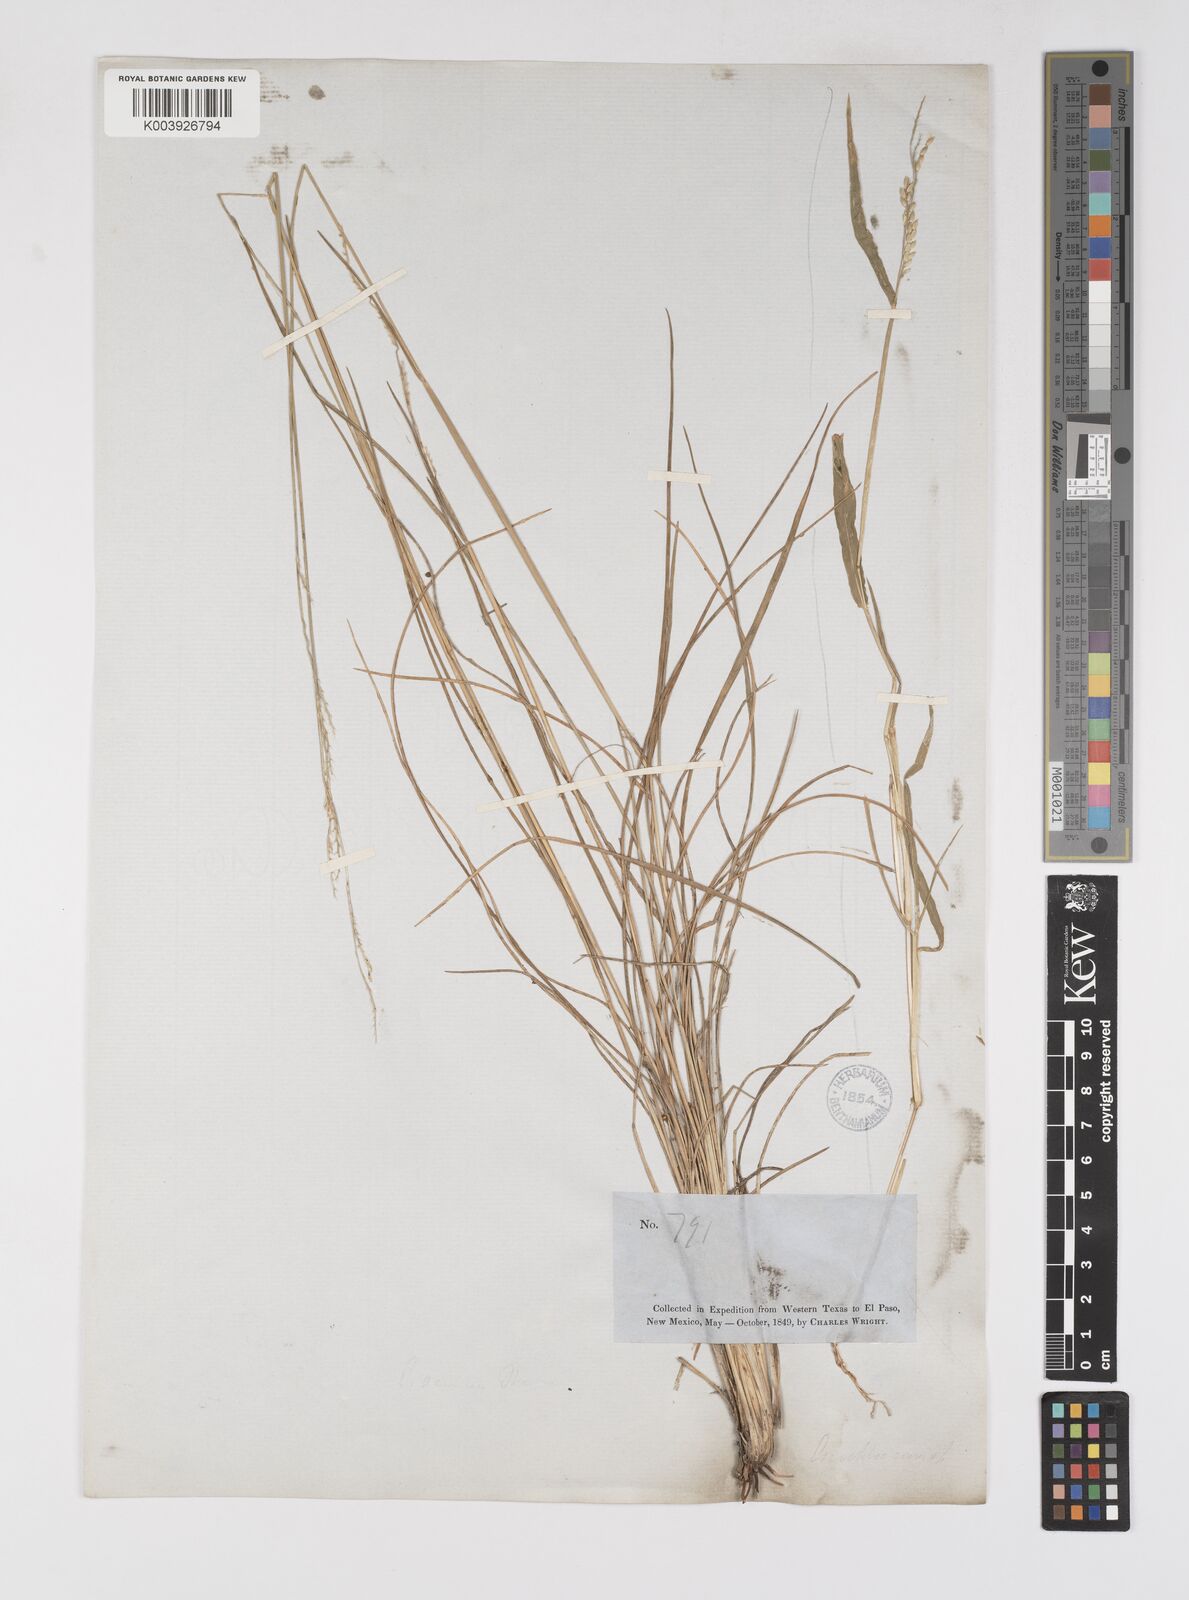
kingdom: Plantae
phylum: Tracheophyta
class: Liliopsida
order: Poales
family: Poaceae
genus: Eriochloa
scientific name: Eriochloa sericea
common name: Texas cup grass
